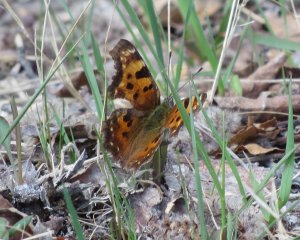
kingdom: Animalia
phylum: Arthropoda
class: Insecta
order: Lepidoptera
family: Nymphalidae
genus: Polygonia
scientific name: Polygonia faunus
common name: Green Comma
